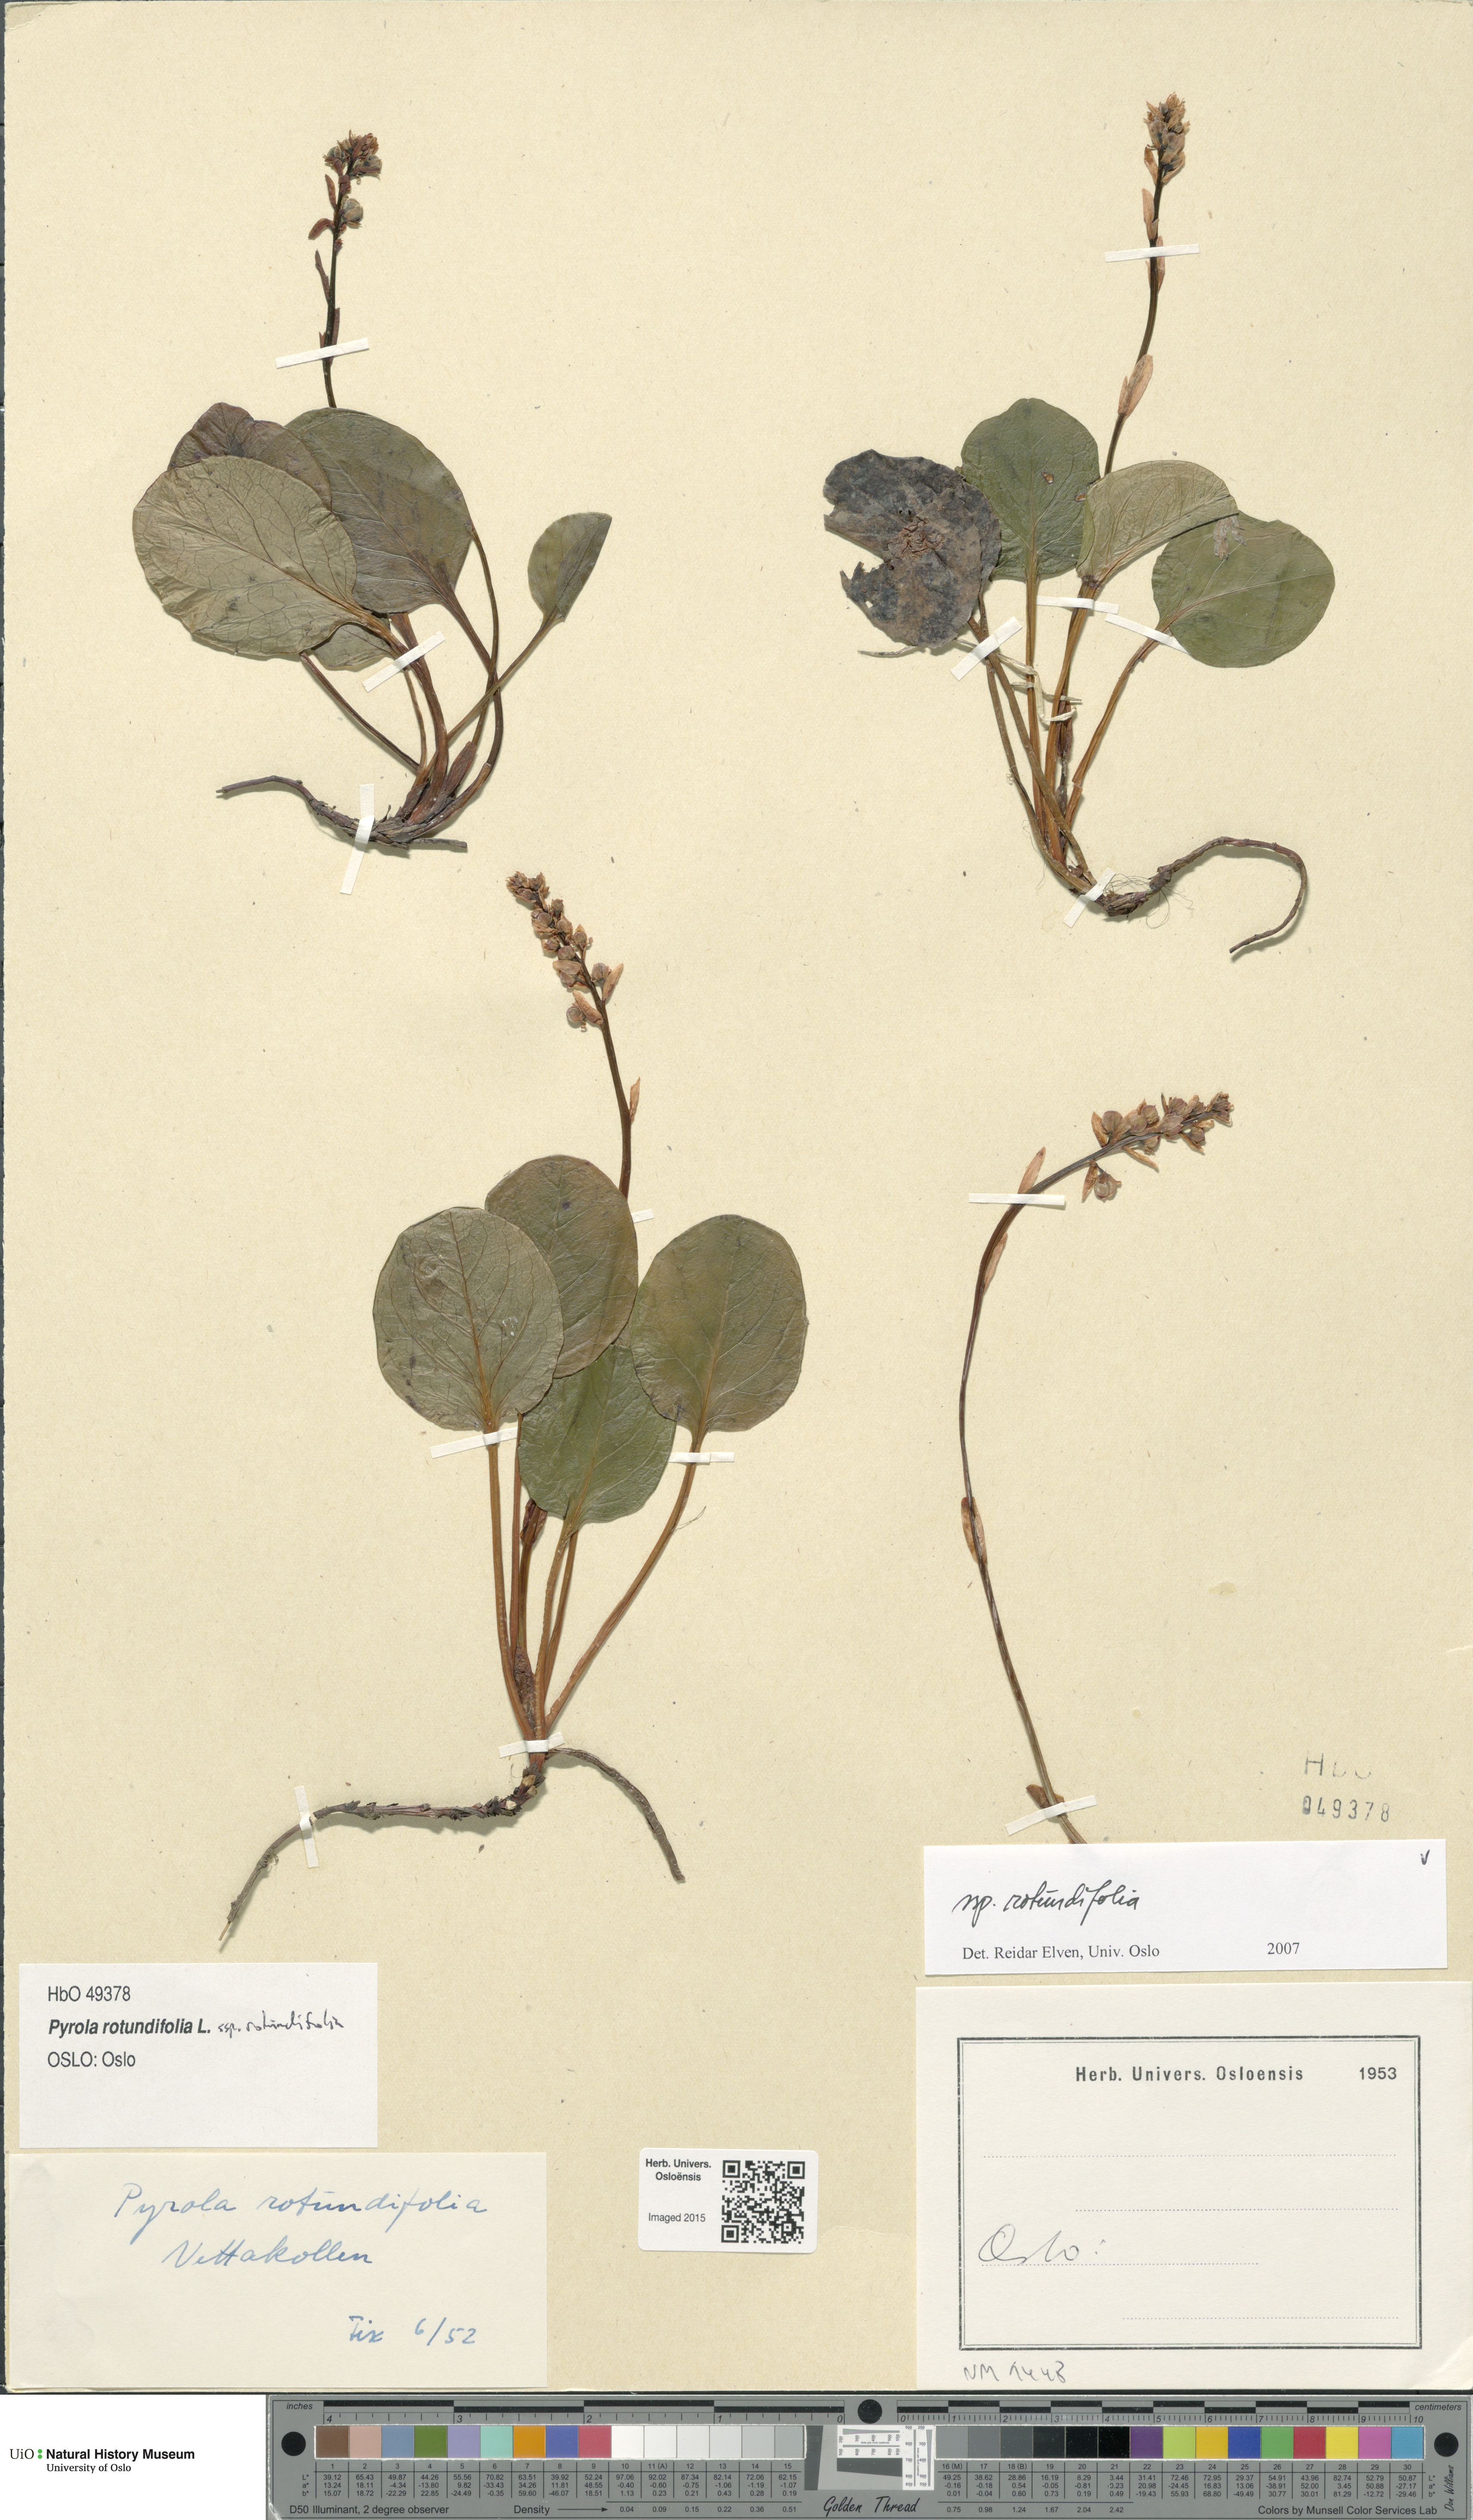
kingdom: Plantae
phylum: Tracheophyta
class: Magnoliopsida
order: Ericales
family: Ericaceae
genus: Pyrola
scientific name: Pyrola rotundifolia
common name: Round-leaved wintergreen
